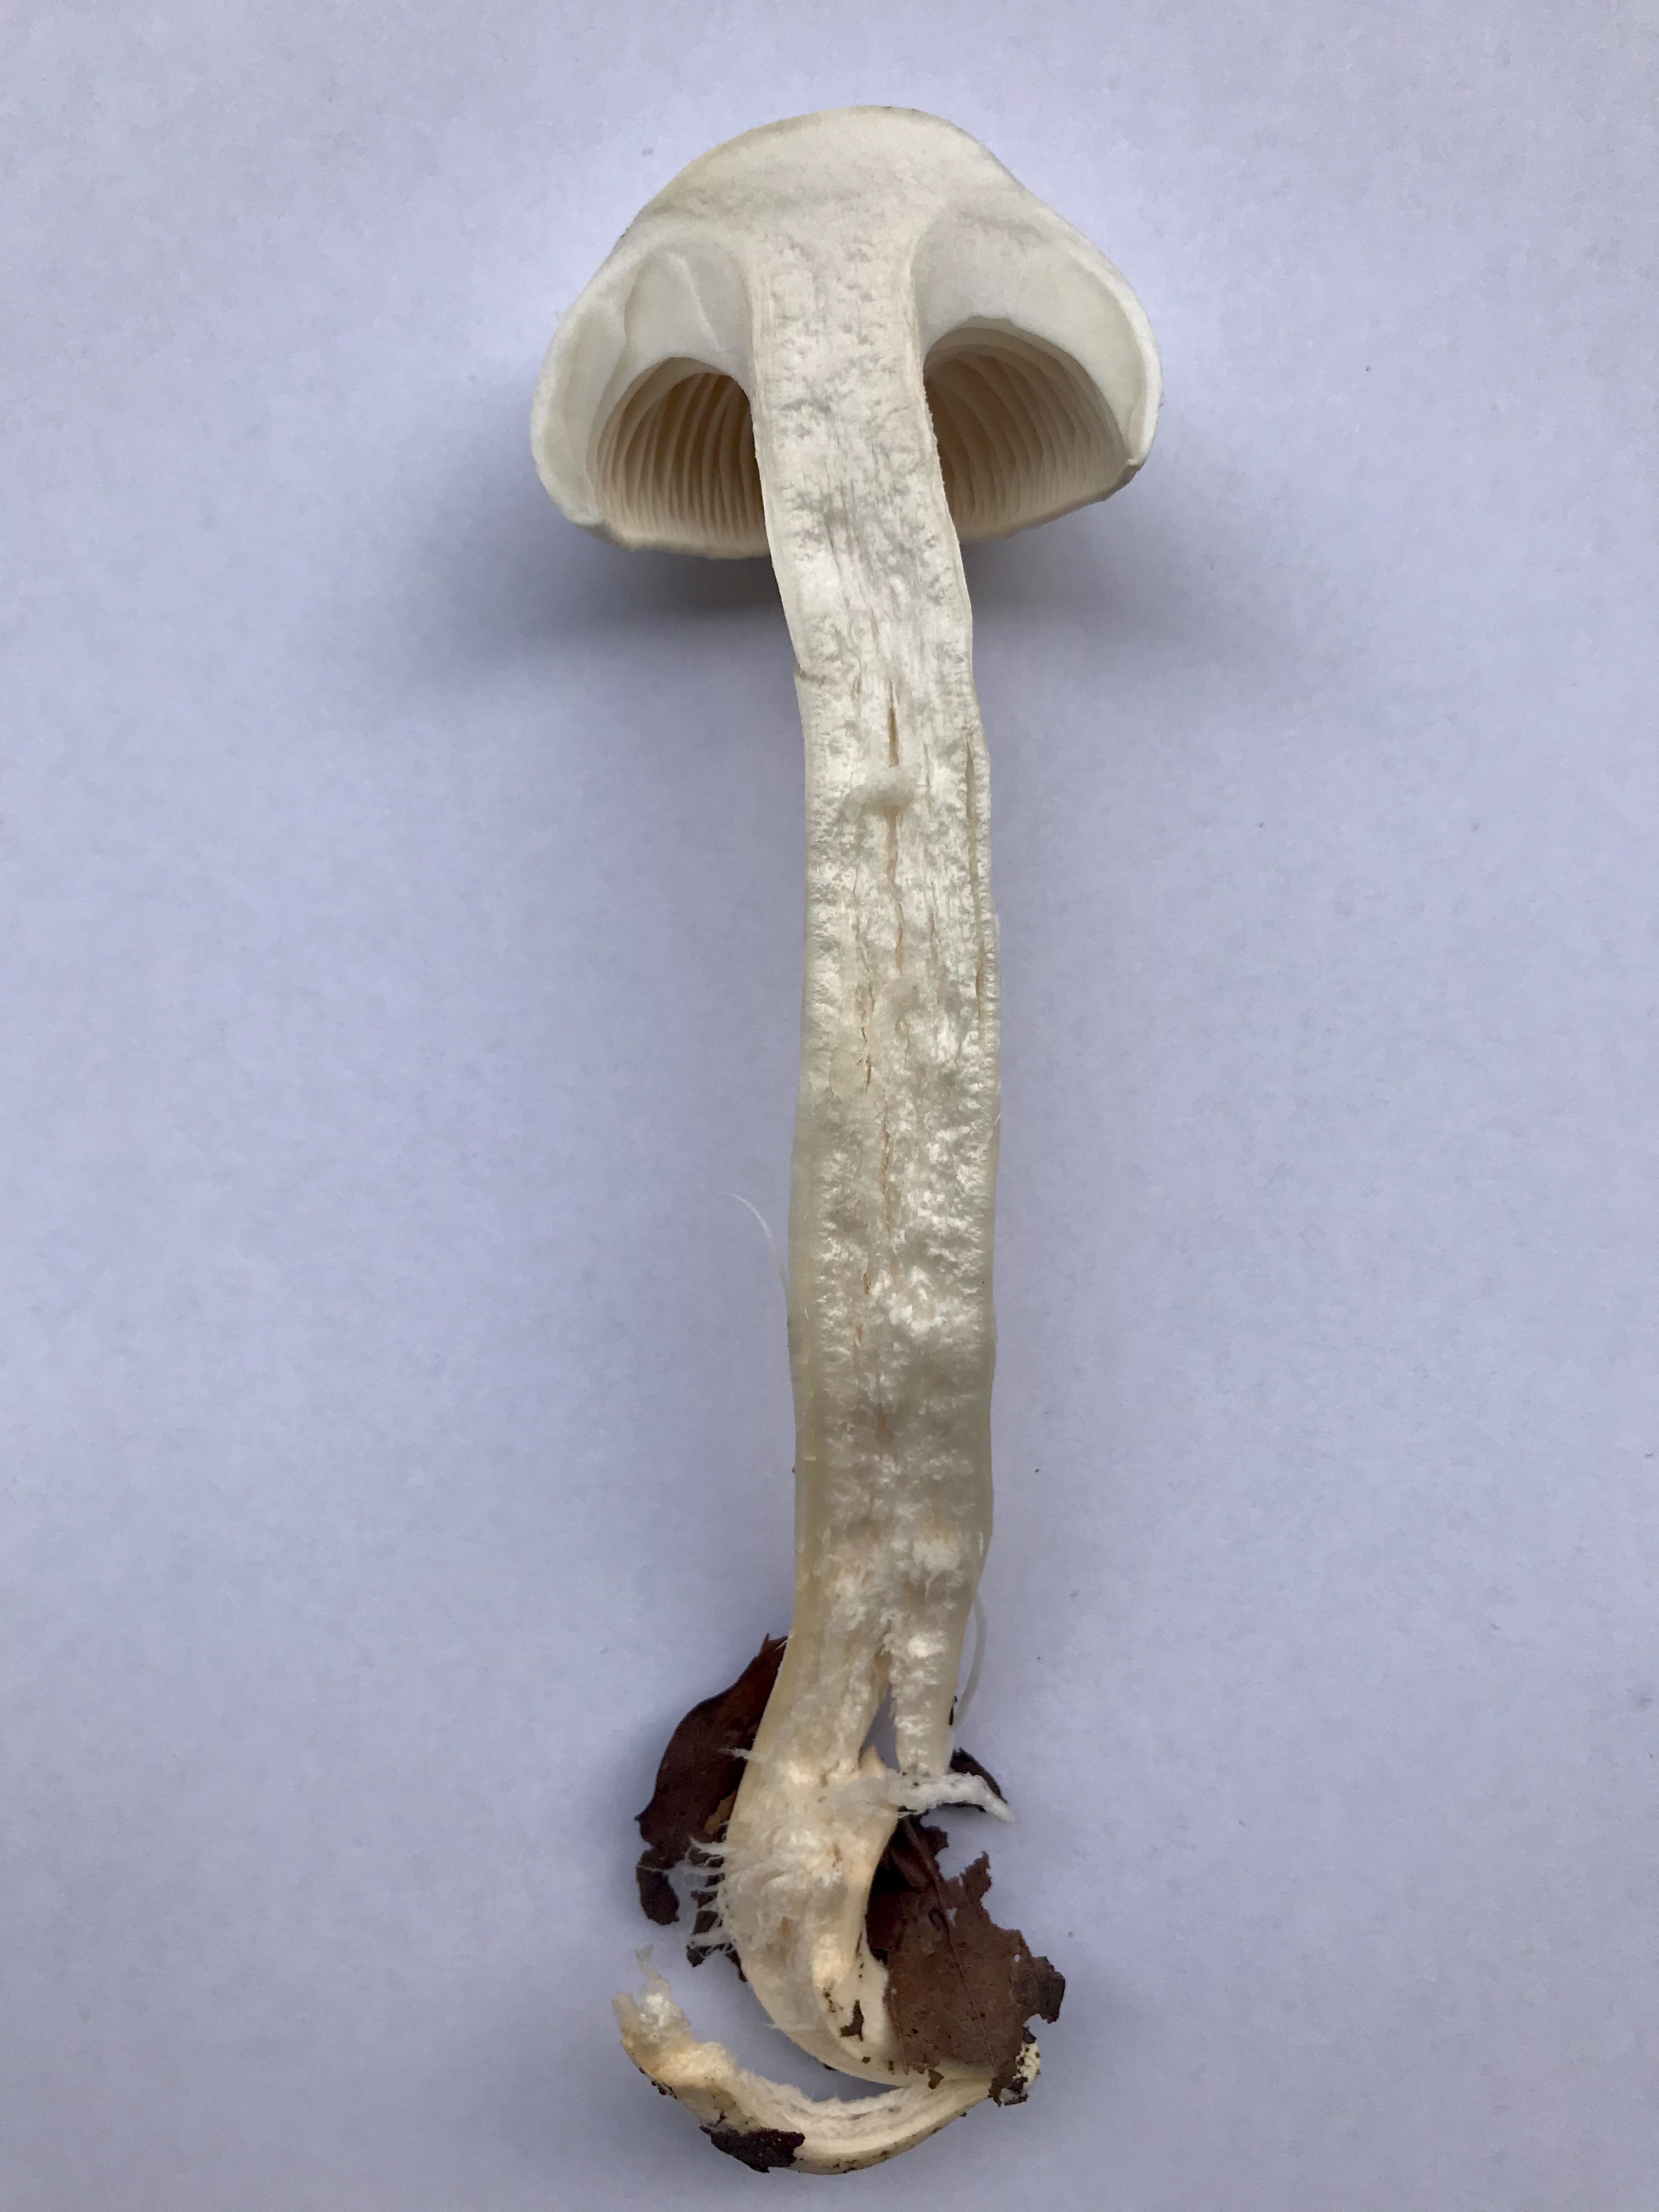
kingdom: Fungi
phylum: Basidiomycota
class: Agaricomycetes
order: Agaricales
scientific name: Agaricales
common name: champignonordenen
